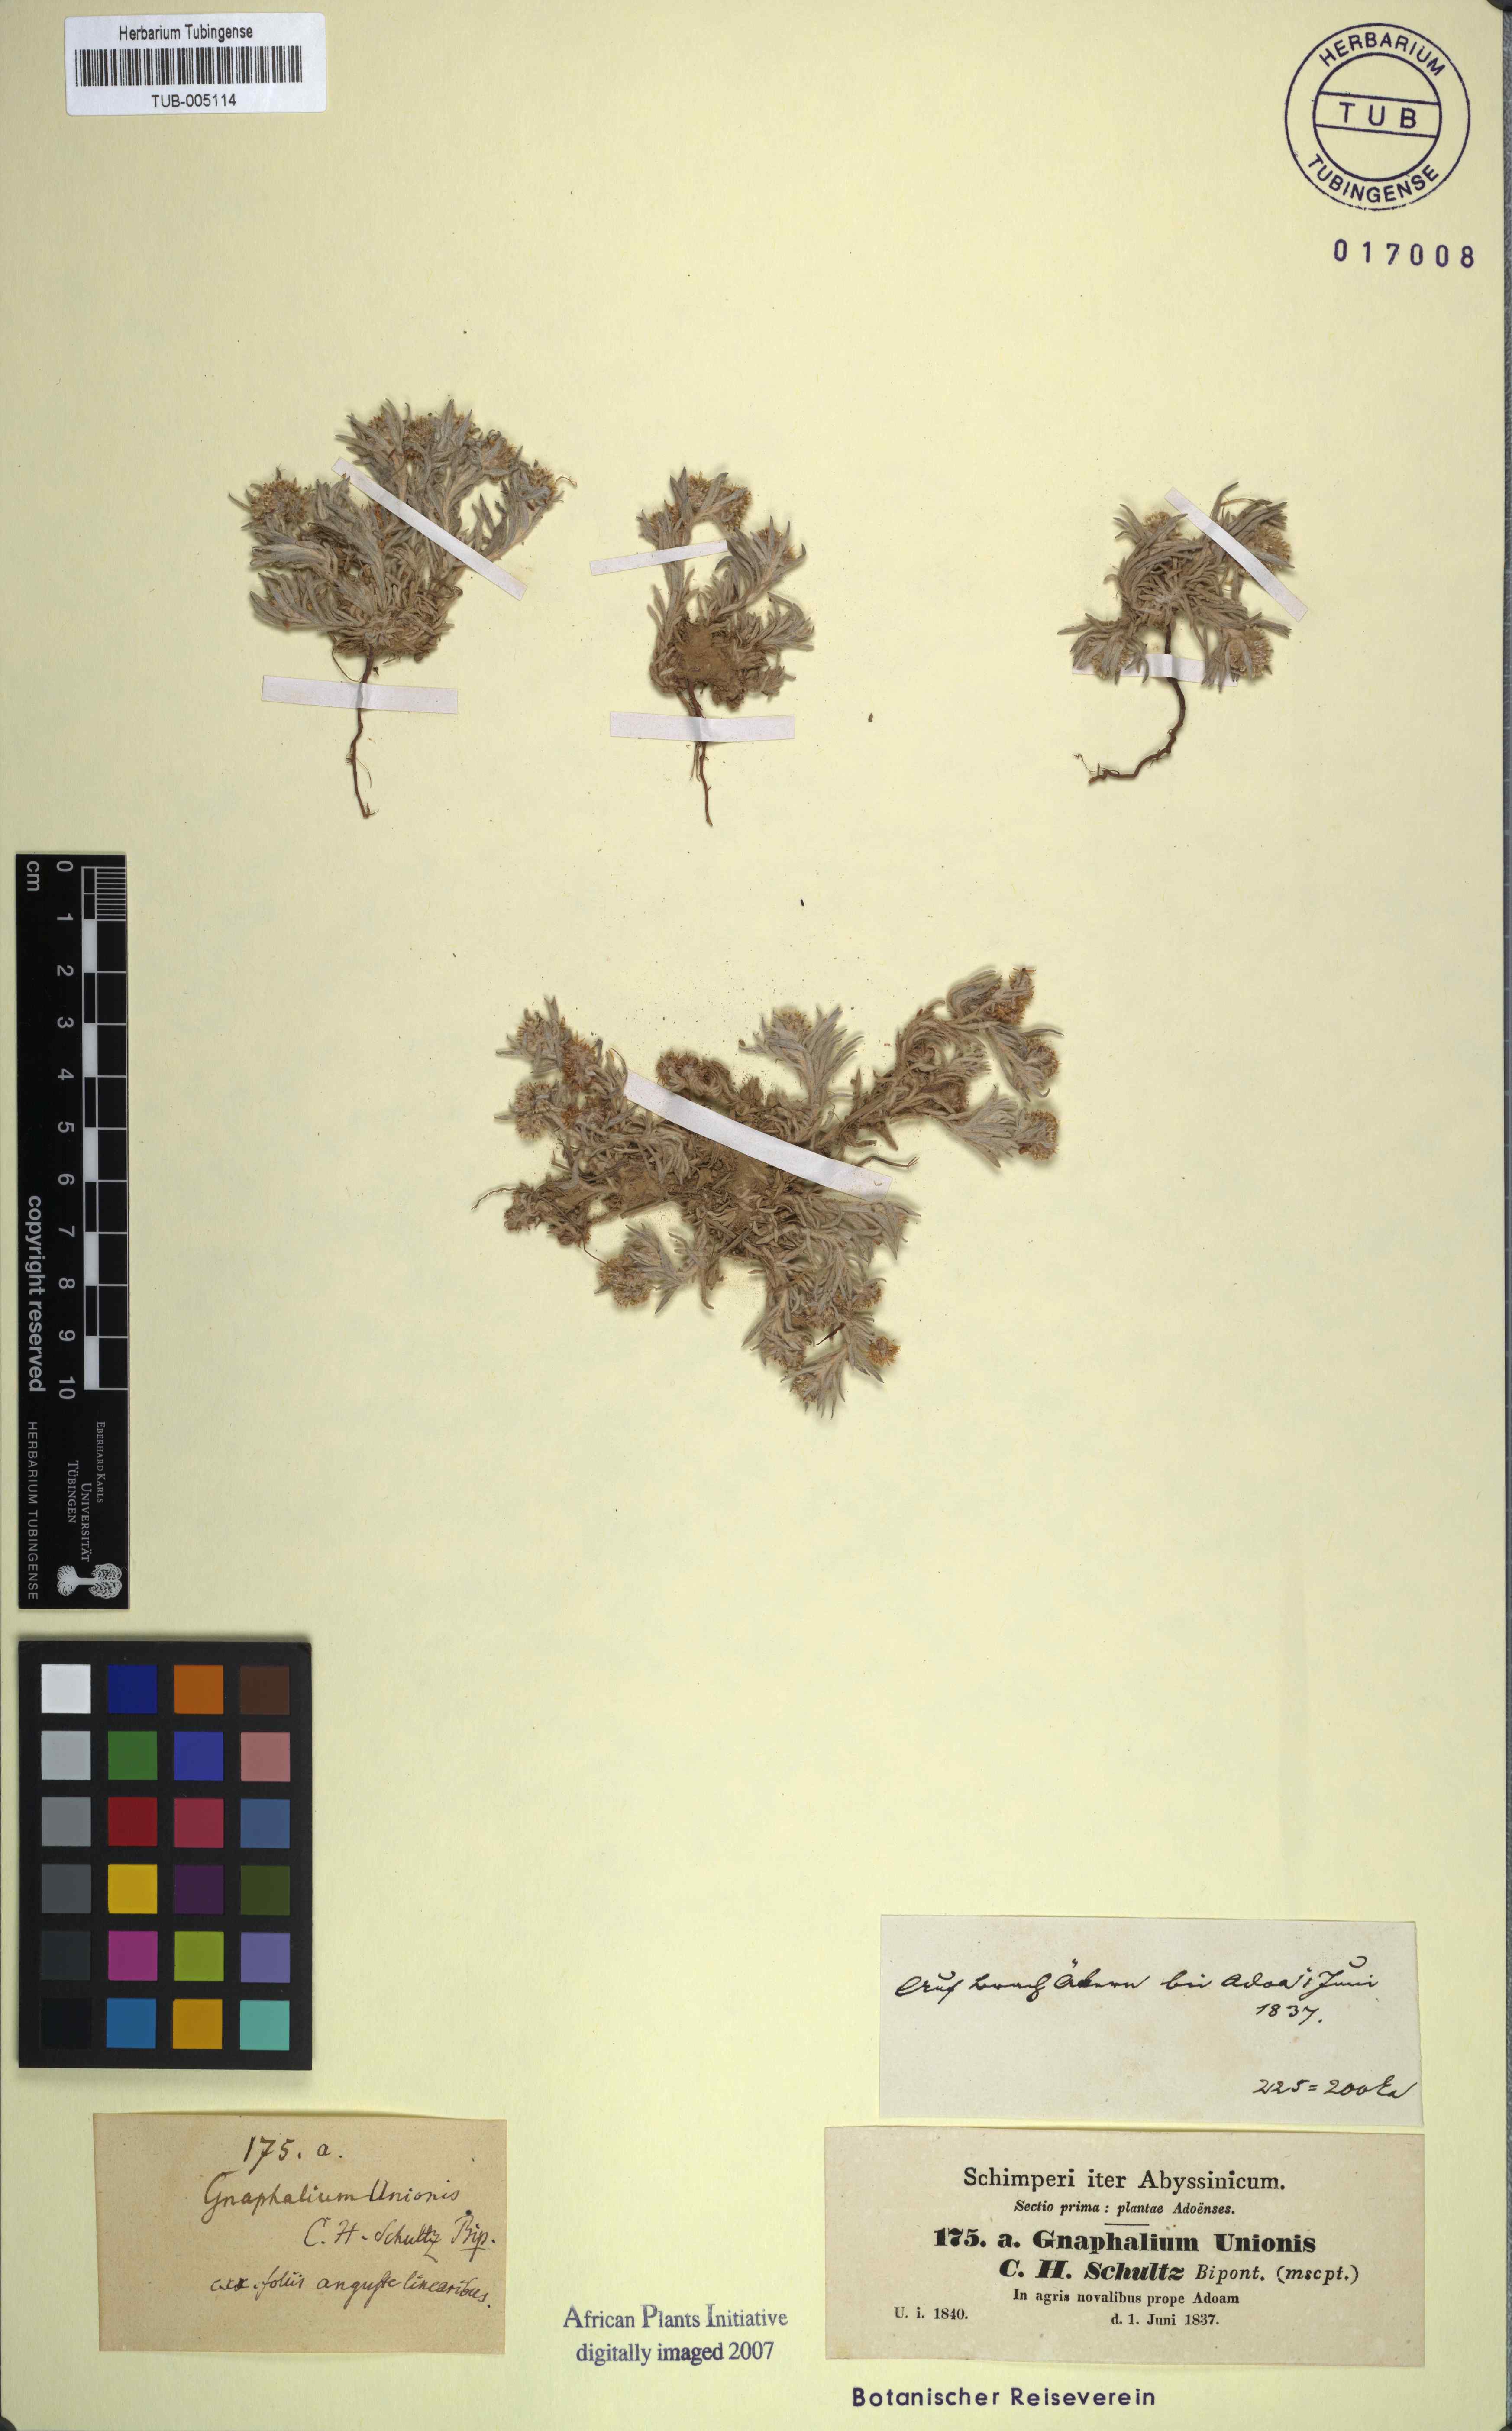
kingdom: Plantae
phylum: Tracheophyta
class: Magnoliopsida
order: Asterales
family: Asteraceae
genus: Gnaphalium
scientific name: Gnaphalium unionis
